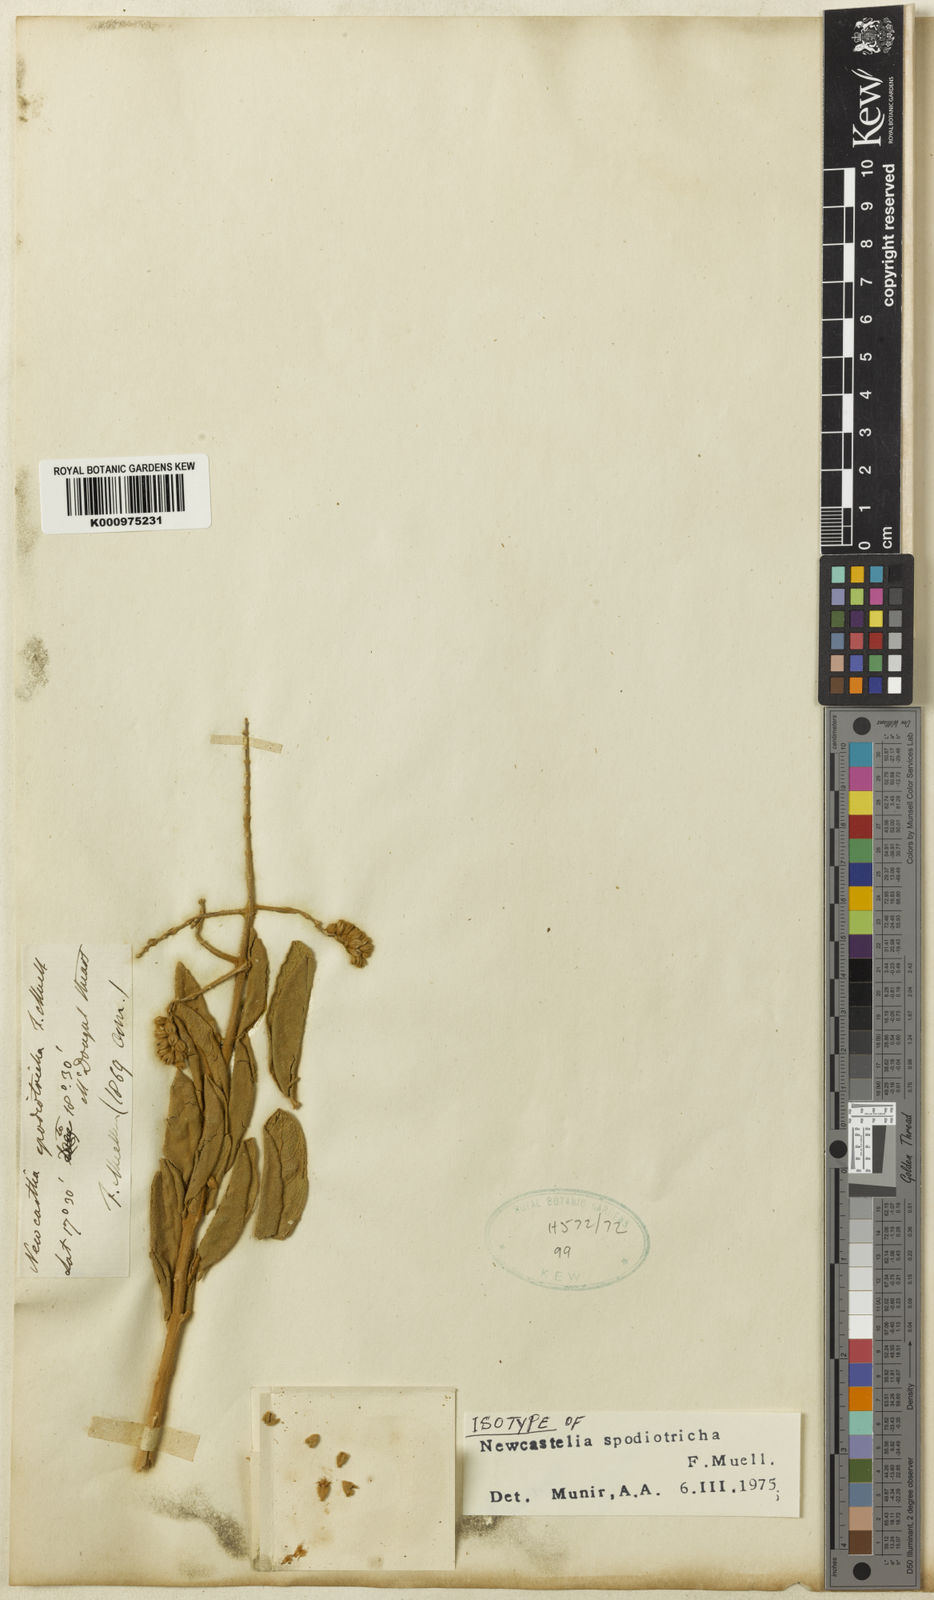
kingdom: Plantae
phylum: Tracheophyta
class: Magnoliopsida
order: Lamiales
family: Lamiaceae
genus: Newcastelia
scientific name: Newcastelia spodiotricha
